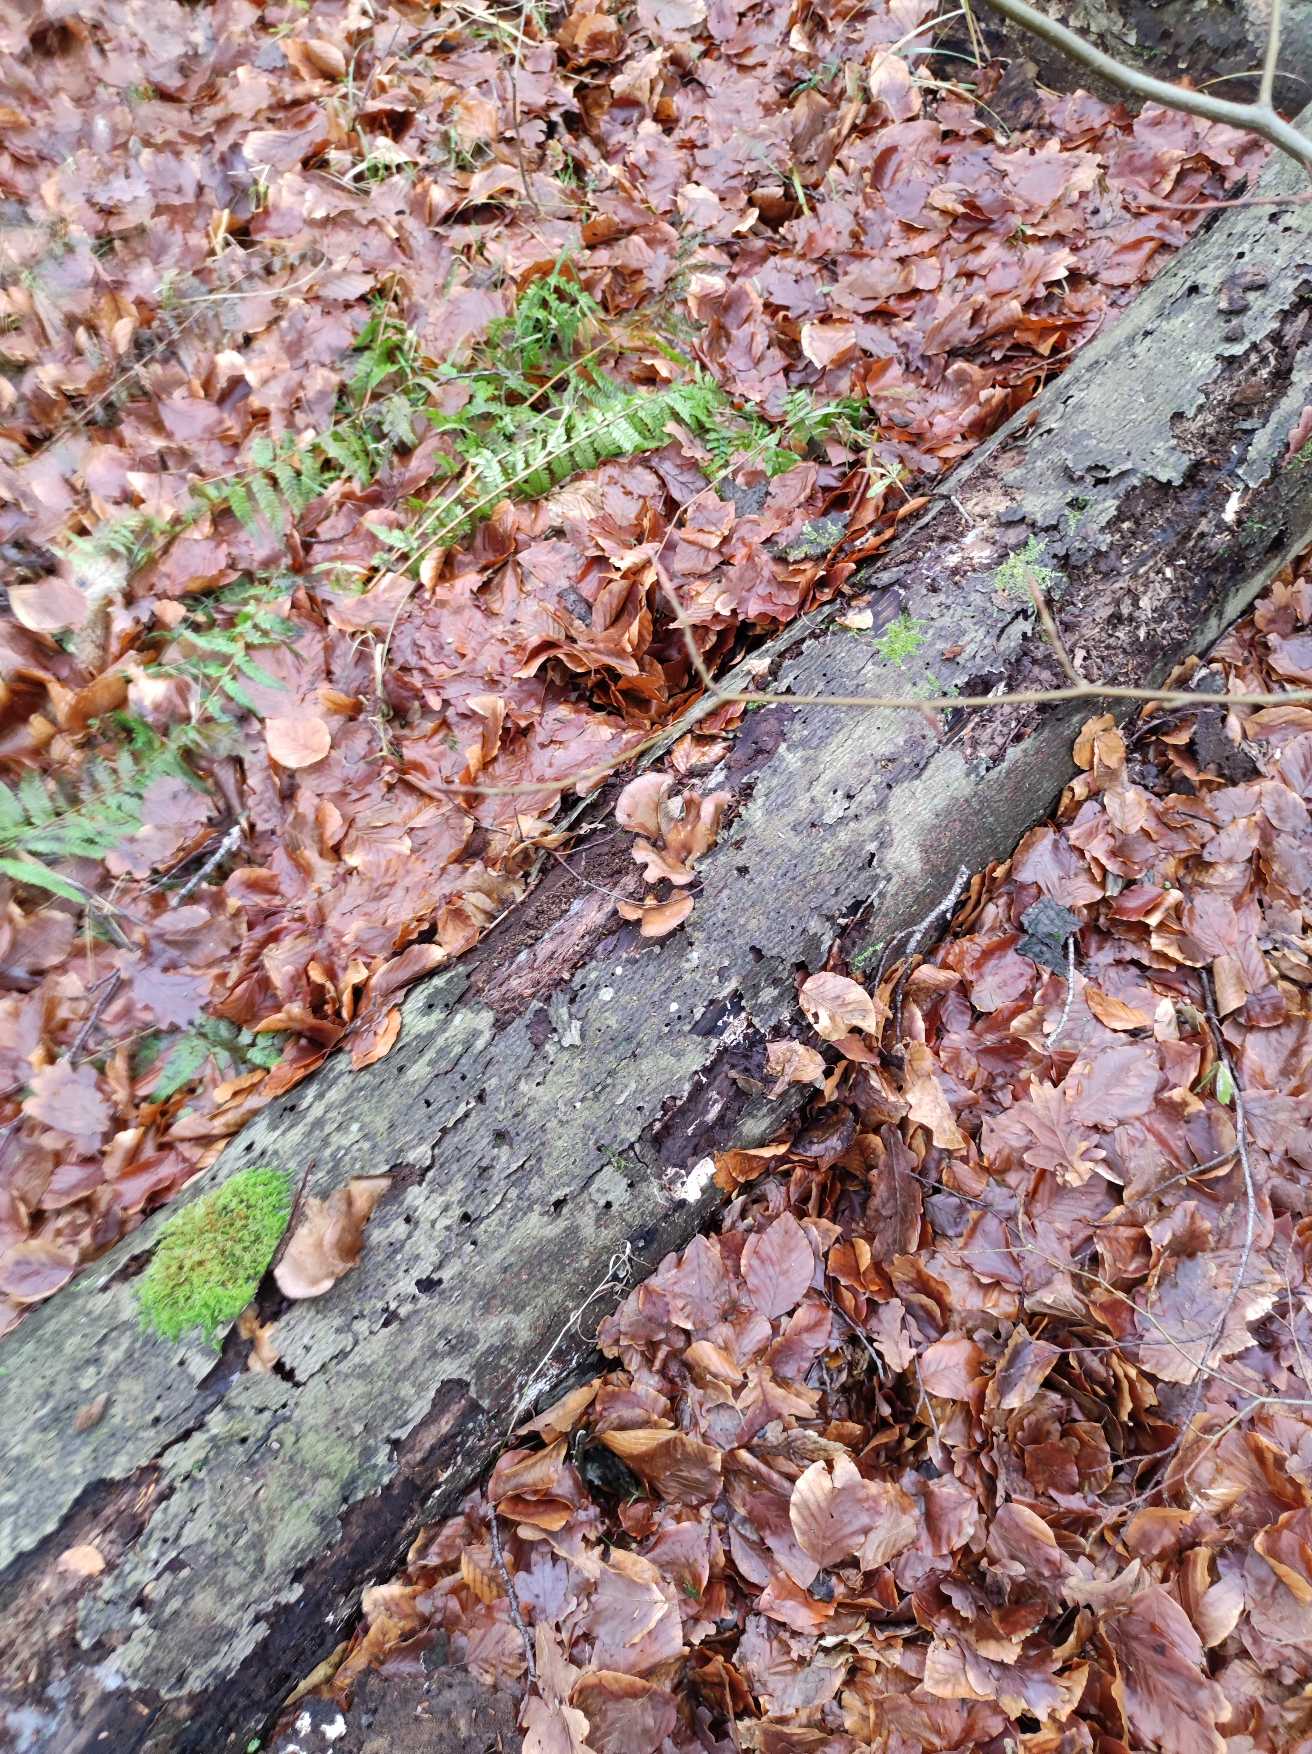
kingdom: Fungi
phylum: Basidiomycota
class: Agaricomycetes
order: Agaricales
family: Sarcomyxaceae
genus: Sarcomyxa
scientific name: Sarcomyxa serotina
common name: Gummihat
